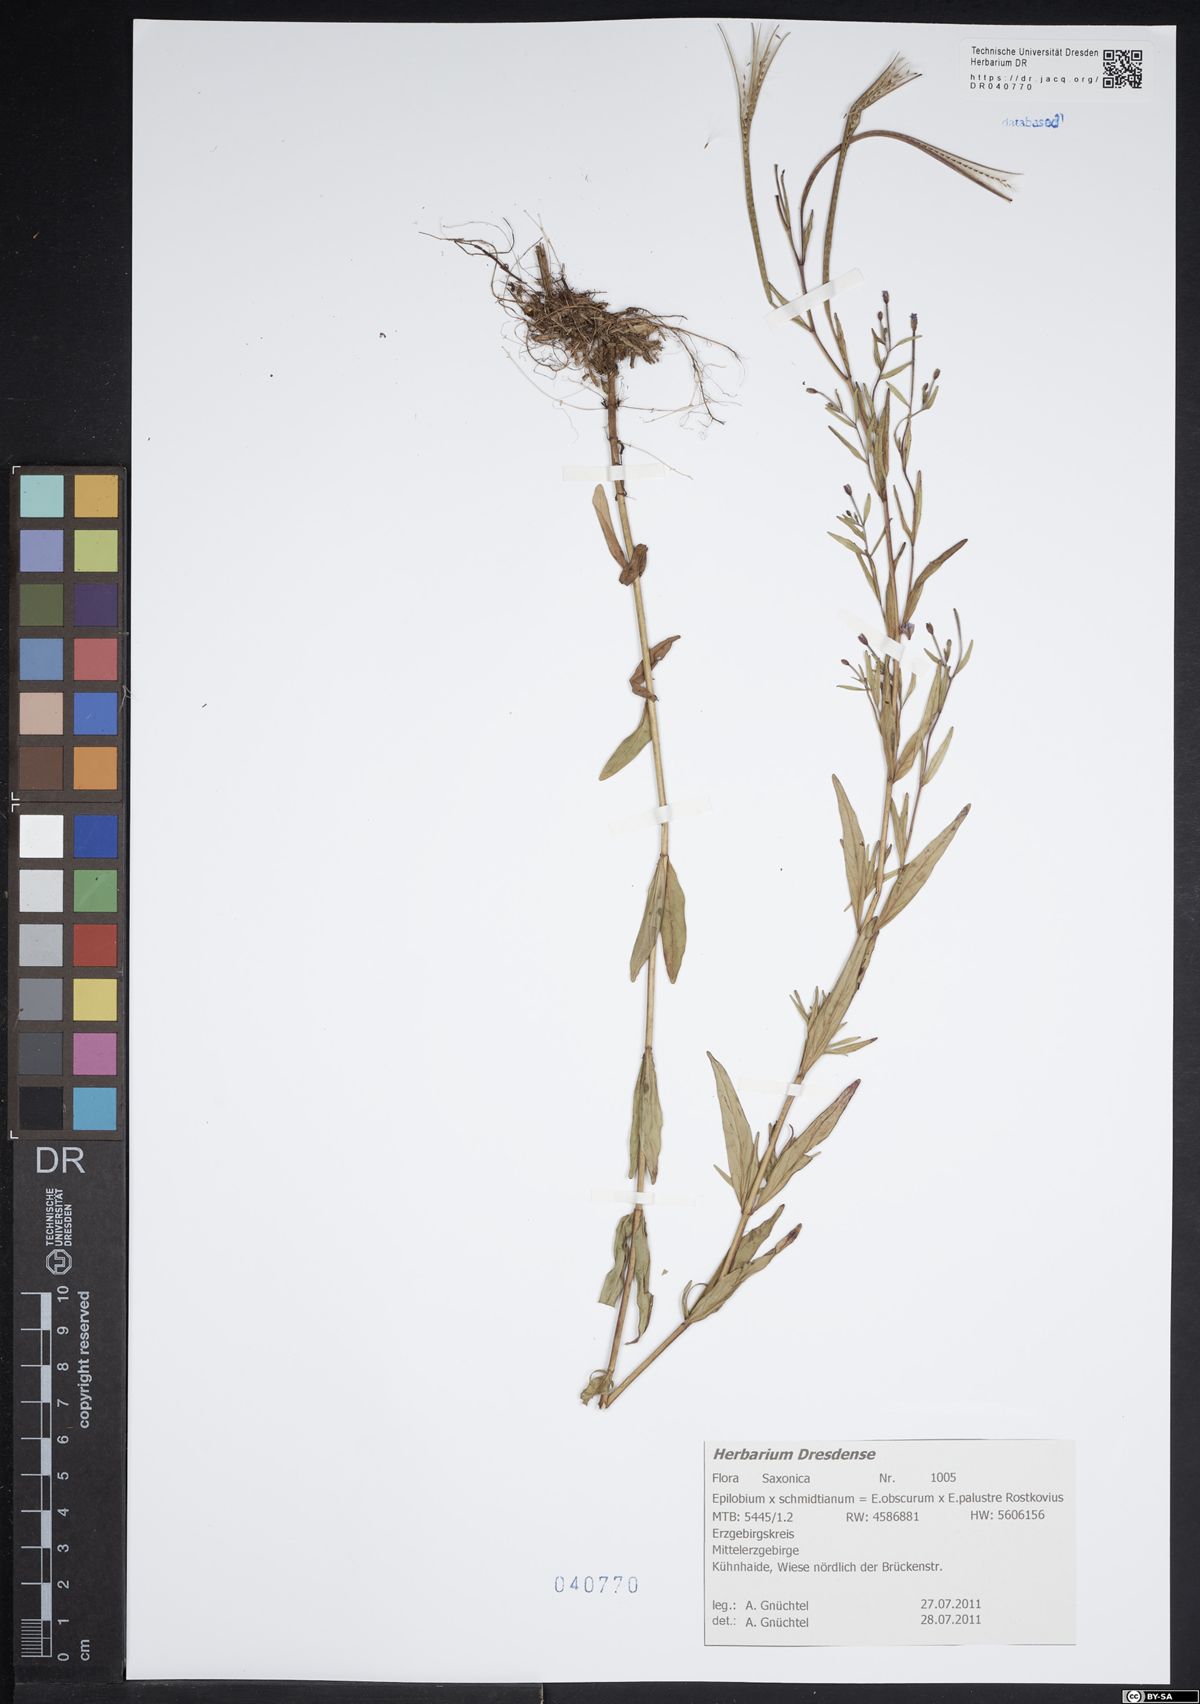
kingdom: Plantae
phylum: Tracheophyta
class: Magnoliopsida
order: Myrtales
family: Onagraceae
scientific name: Onagraceae
